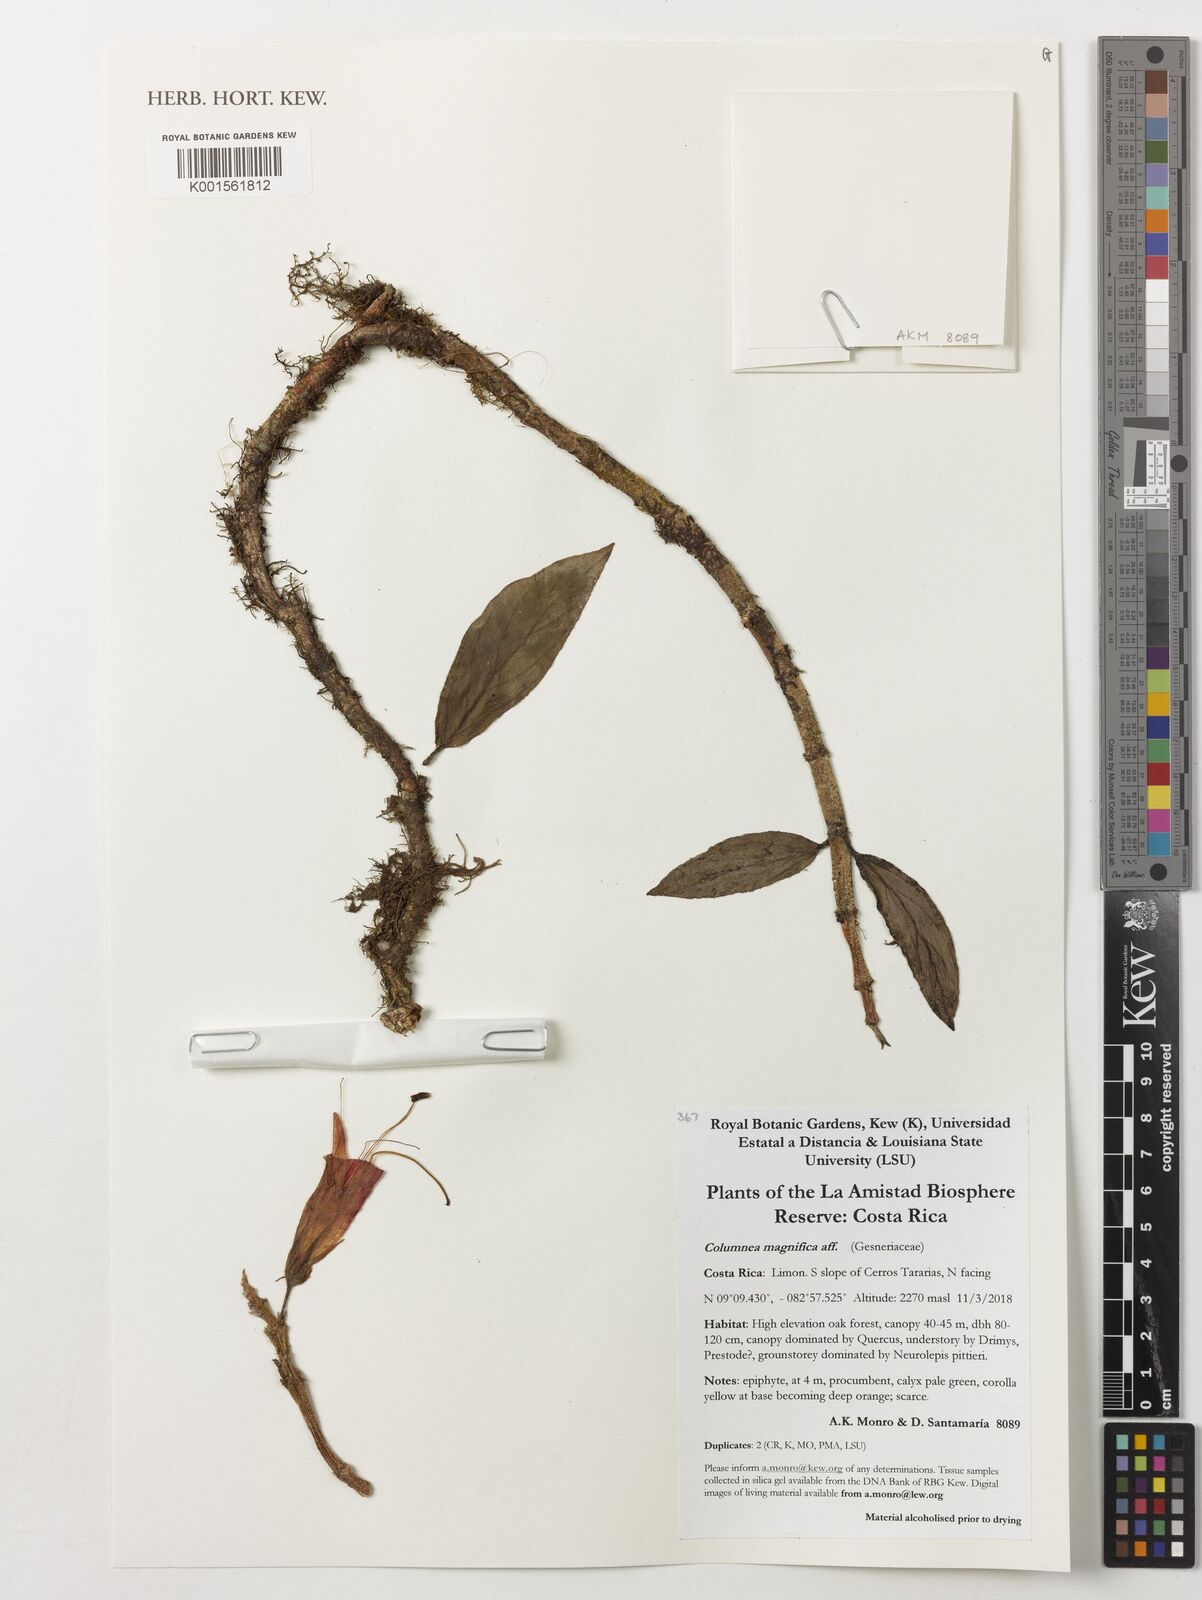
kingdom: Plantae
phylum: Tracheophyta
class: Magnoliopsida
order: Lamiales
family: Gesneriaceae
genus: Columnea
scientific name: Columnea magnifica
